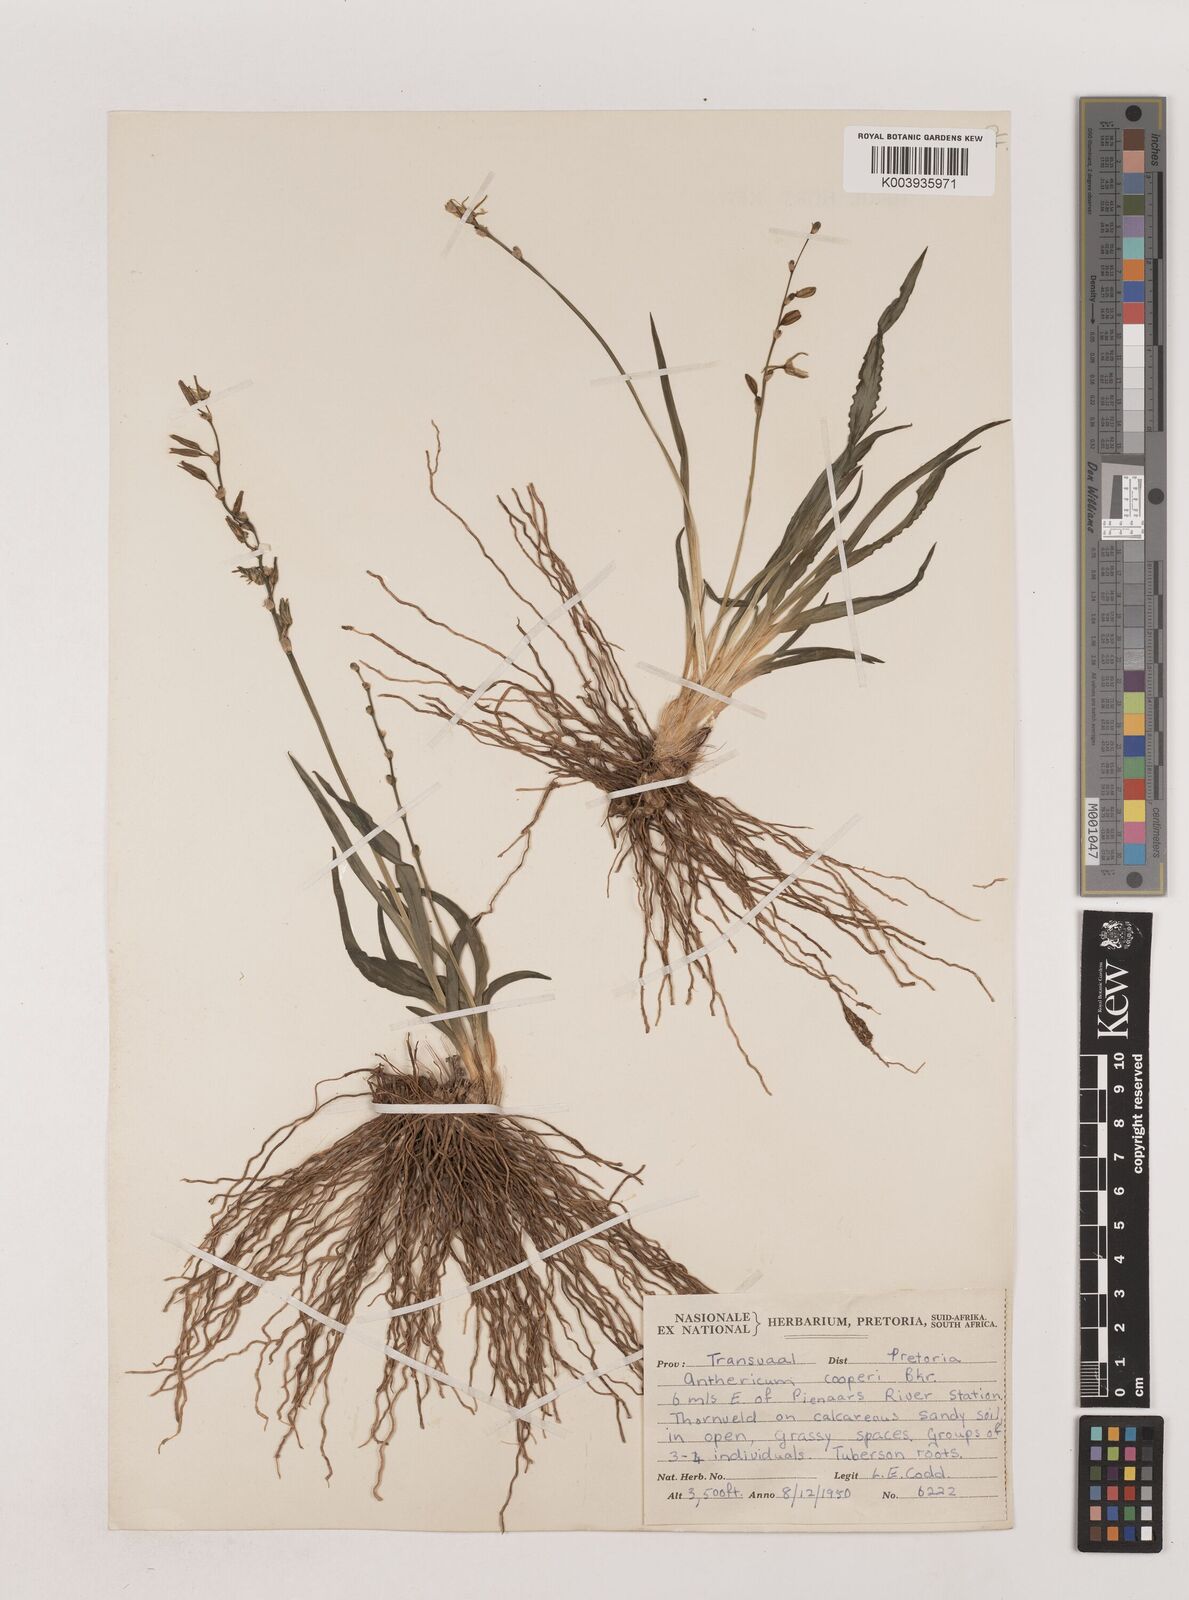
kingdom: Plantae
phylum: Tracheophyta
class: Liliopsida
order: Asparagales
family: Asparagaceae
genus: Chlorophytum
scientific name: Chlorophytum cooperi
